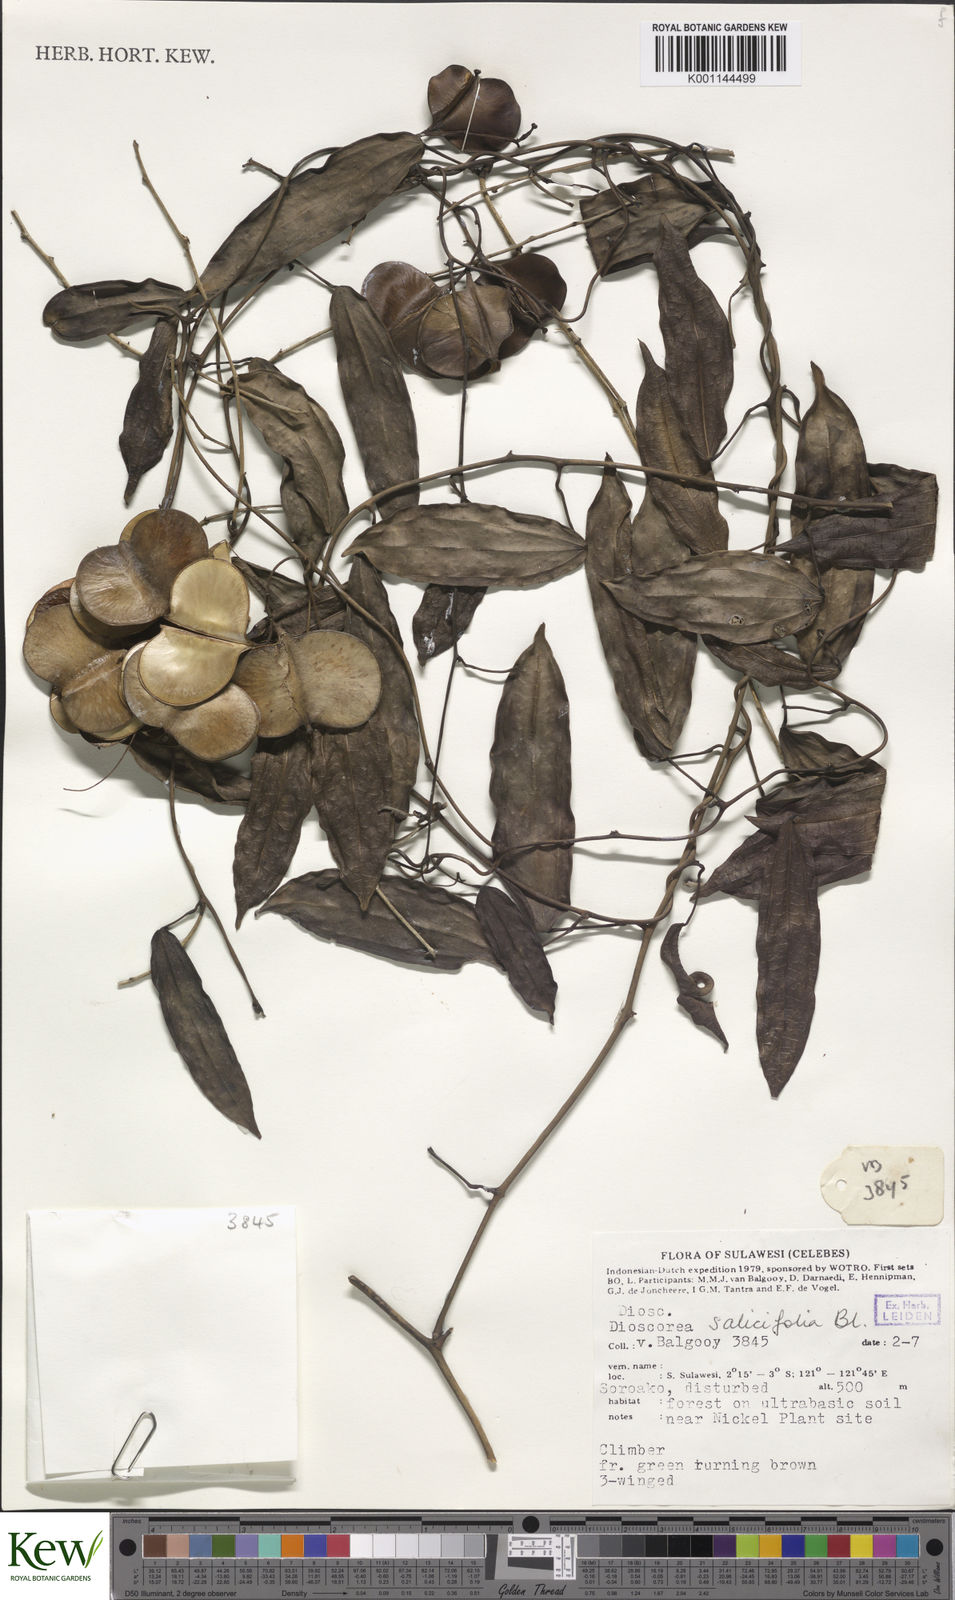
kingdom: Plantae
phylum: Tracheophyta
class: Liliopsida
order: Dioscoreales
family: Dioscoreaceae
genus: Dioscorea
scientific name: Dioscorea salicifolia
